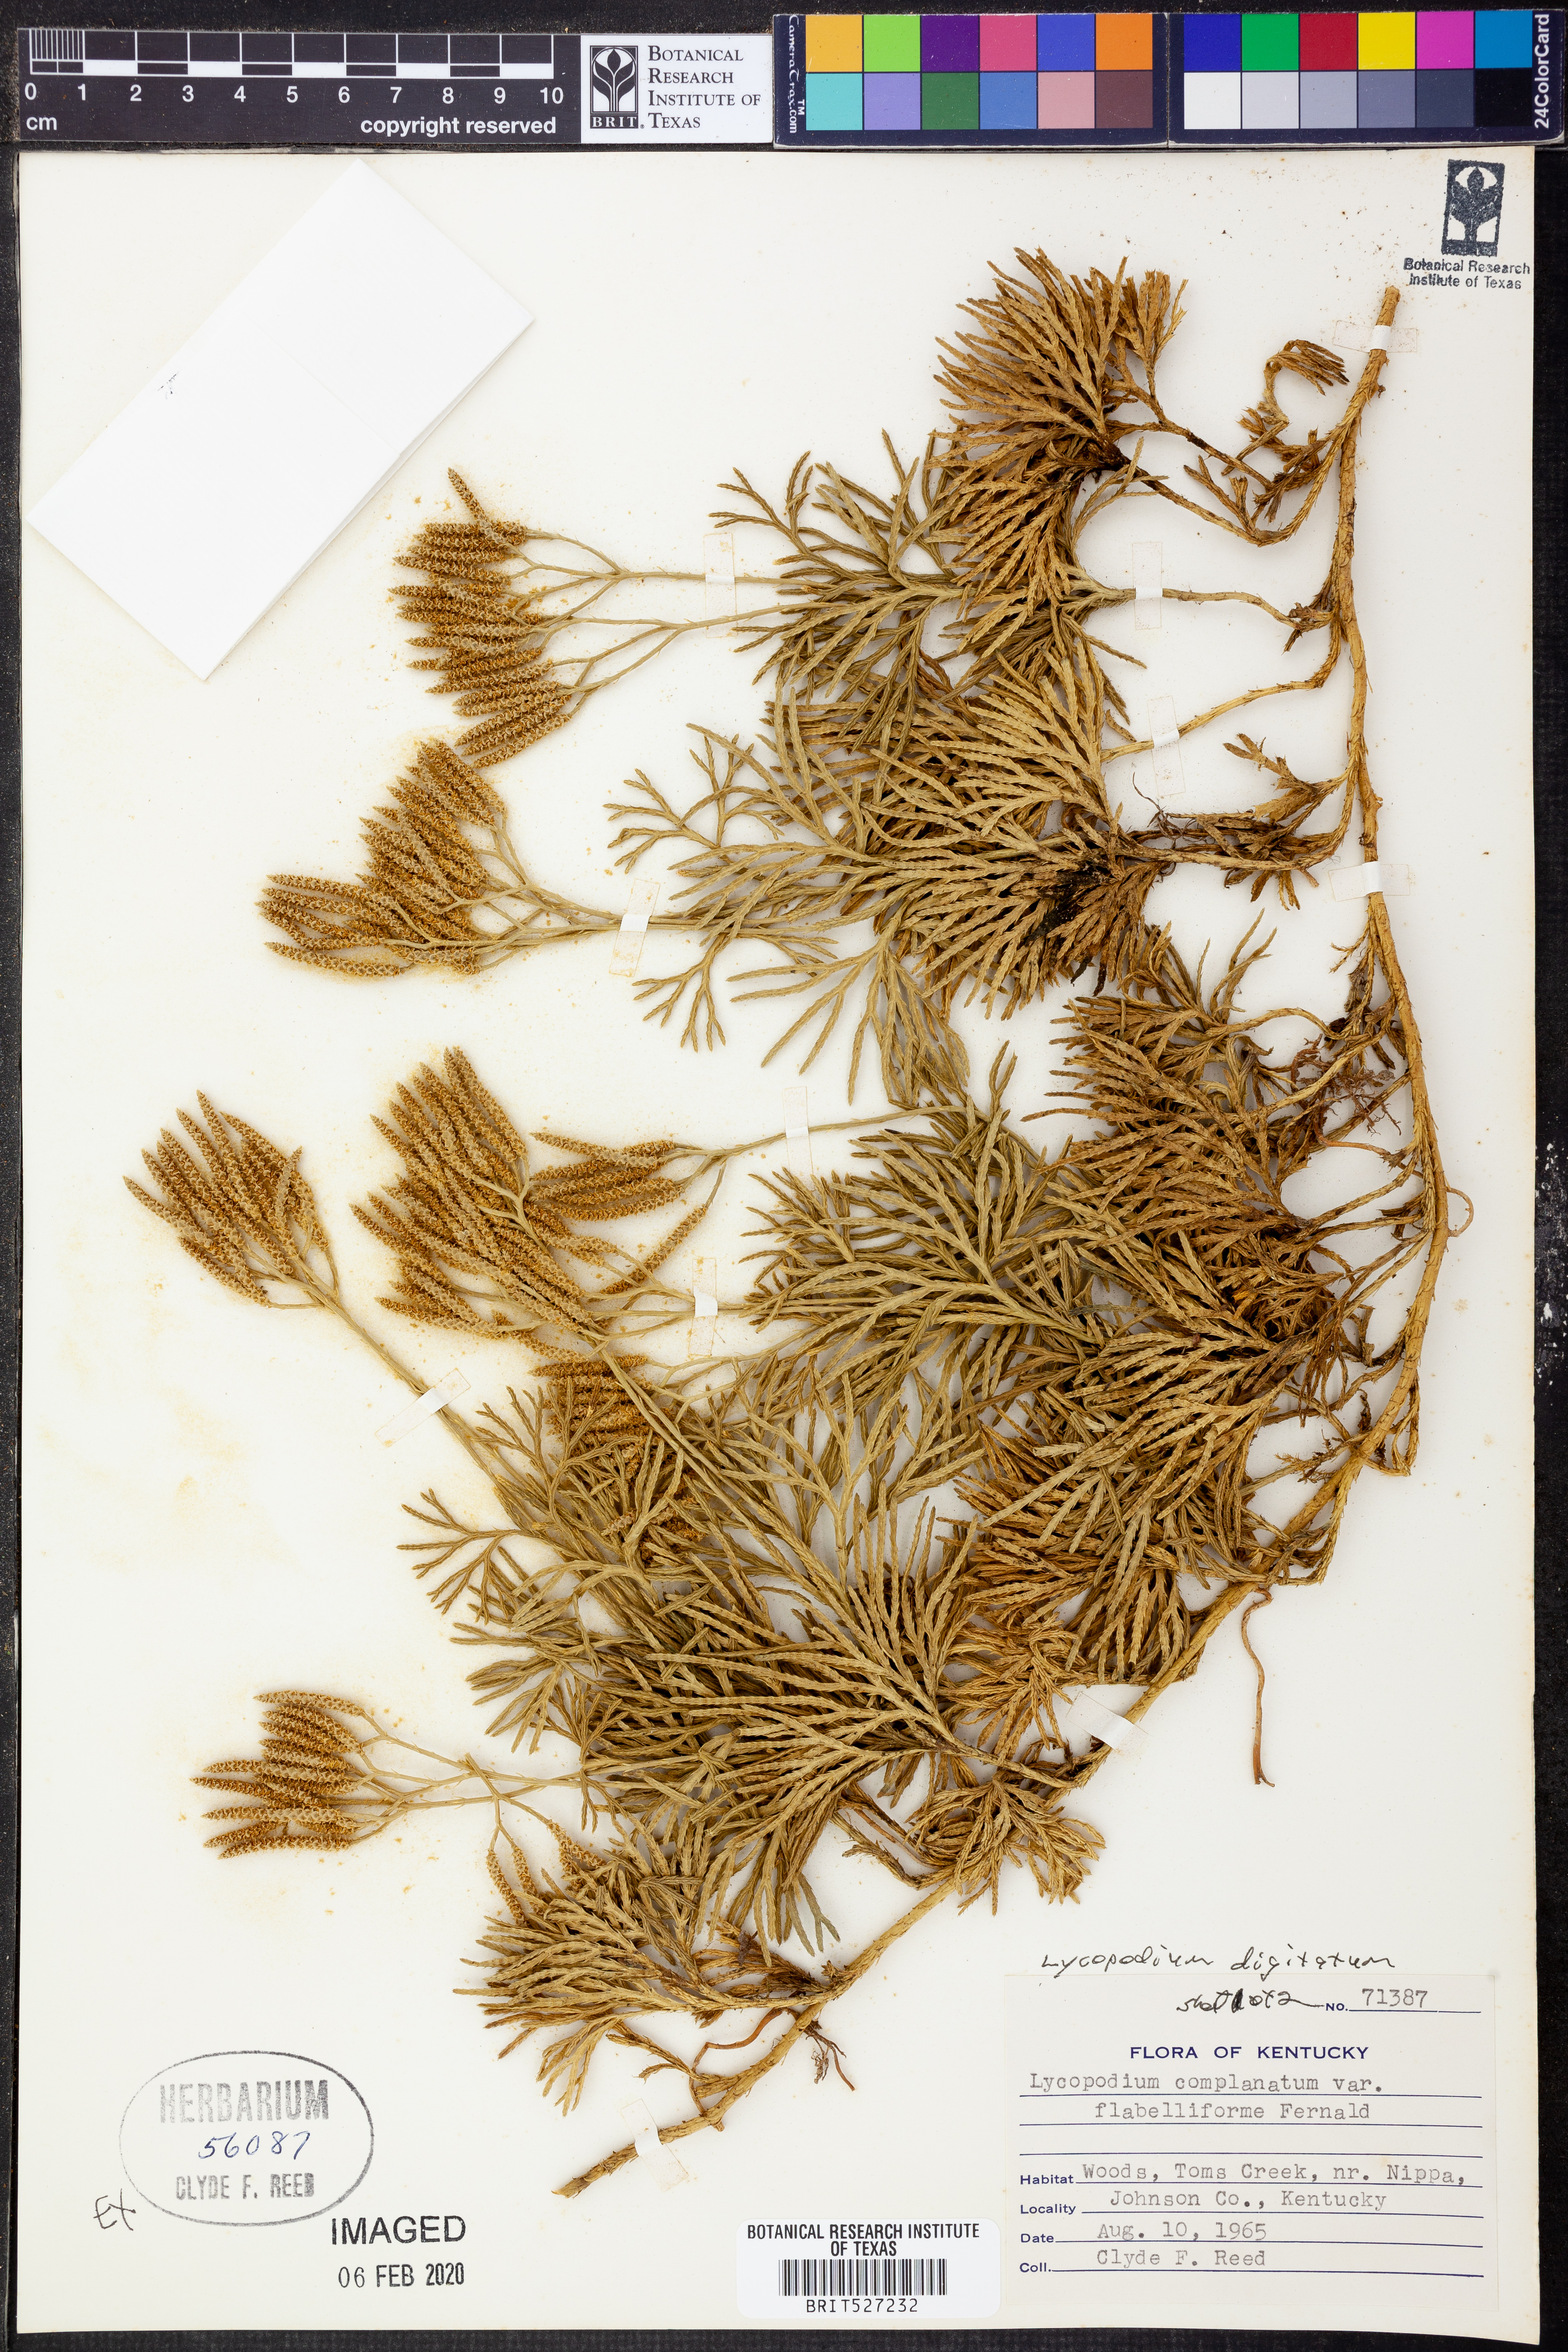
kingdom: Plantae
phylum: Tracheophyta
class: Lycopodiopsida
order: Lycopodiales
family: Lycopodiaceae
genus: Diphasiastrum
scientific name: Diphasiastrum digitatum
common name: Southern running-pine
